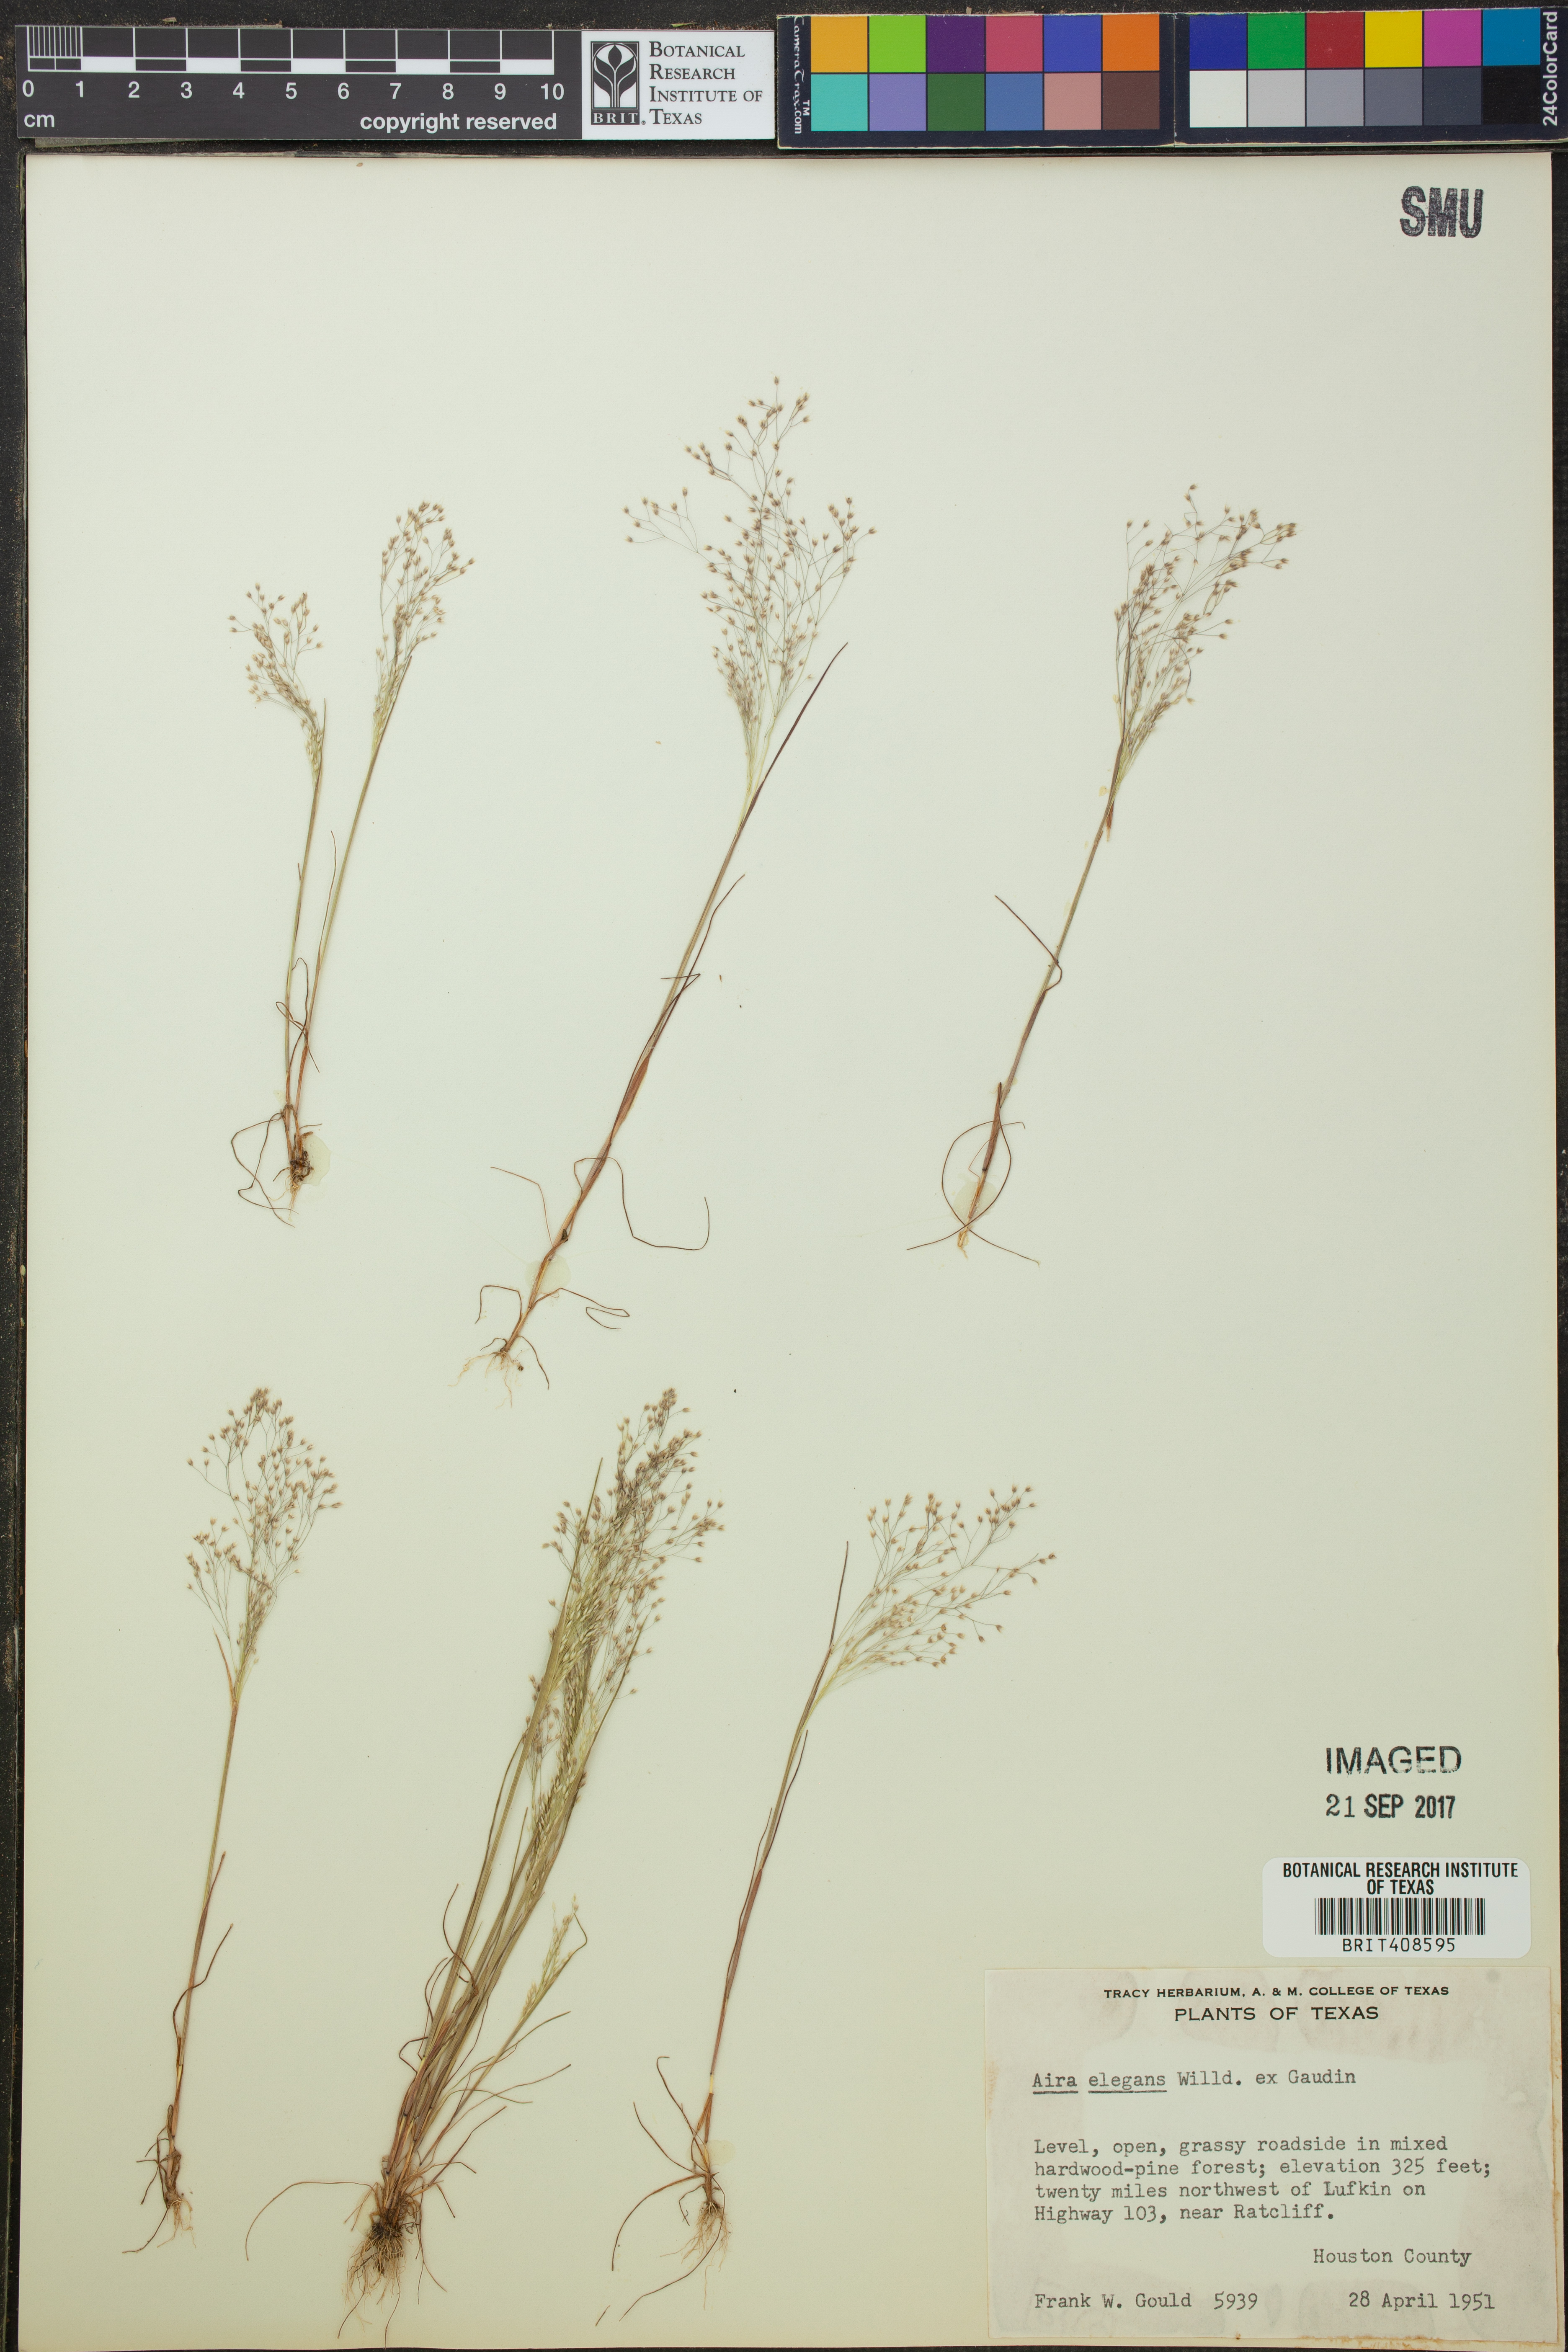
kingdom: Plantae
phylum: Tracheophyta
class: Liliopsida
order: Poales
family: Poaceae
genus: Aira
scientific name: Aira elegans
